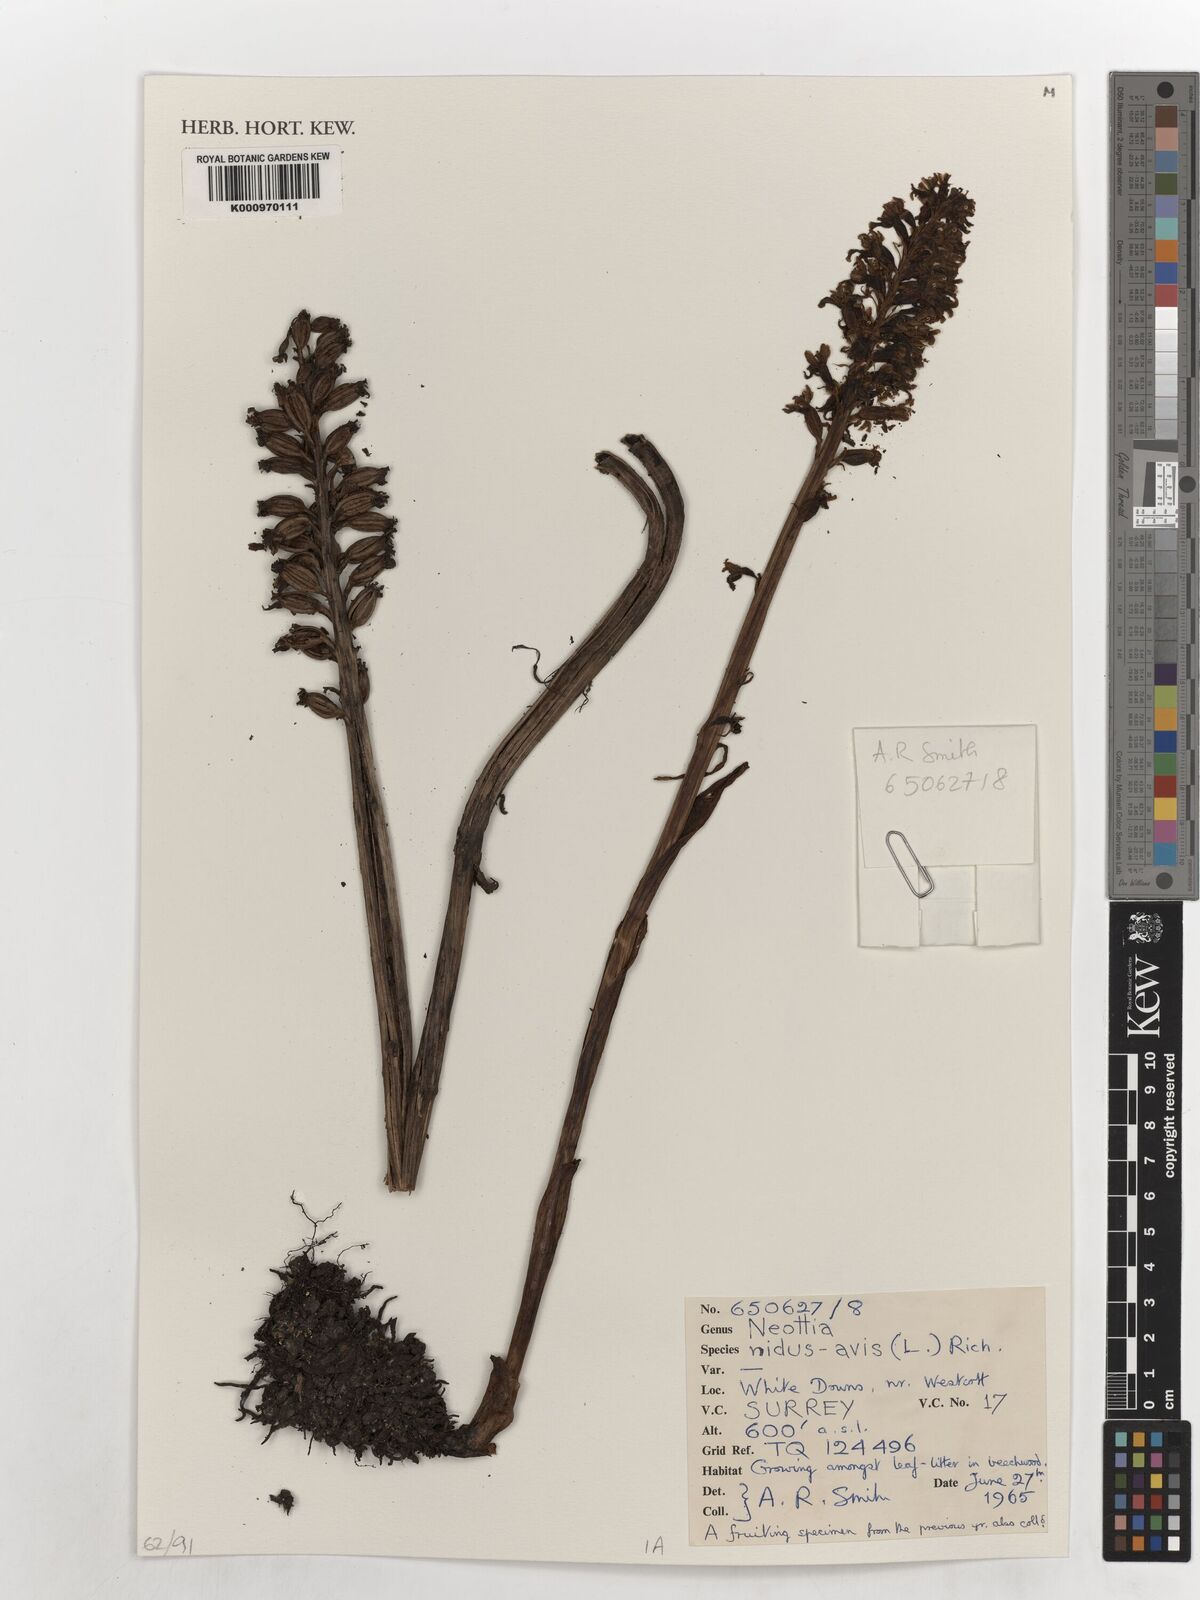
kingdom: Plantae
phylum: Tracheophyta
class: Liliopsida
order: Asparagales
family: Orchidaceae
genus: Neottia
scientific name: Neottia nidus-avis
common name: Bird's-nest orchid
